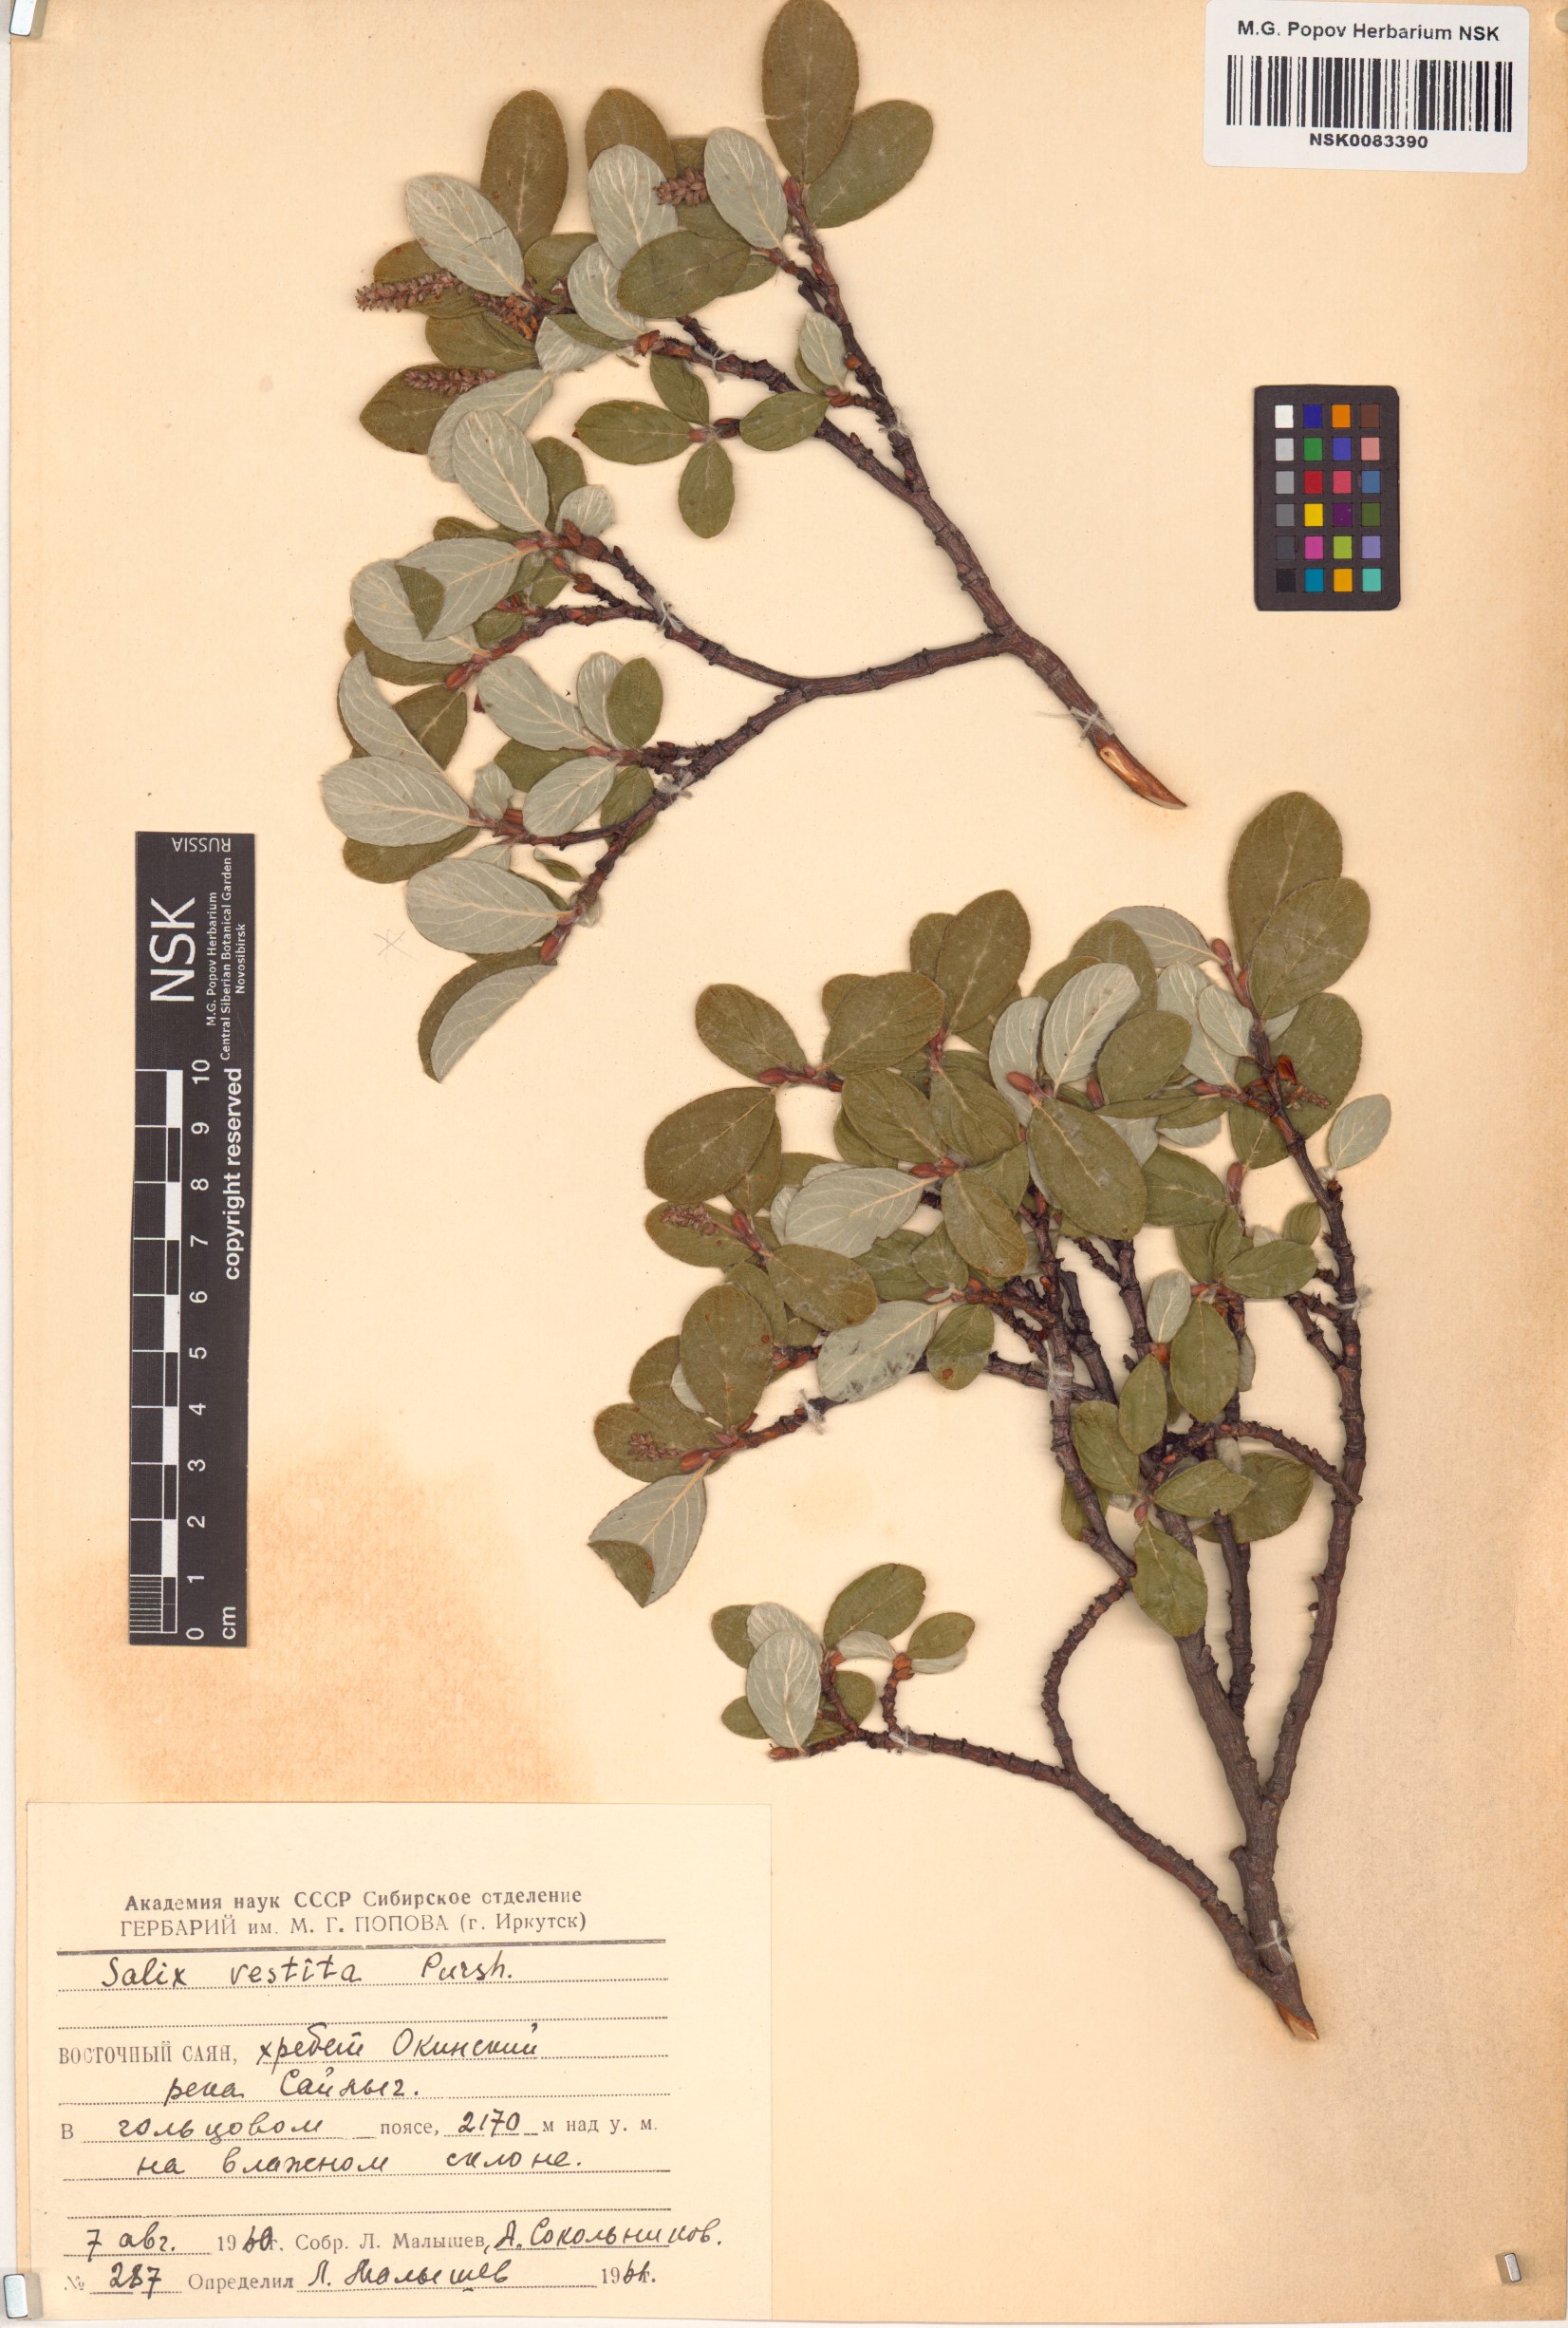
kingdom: Plantae
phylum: Tracheophyta
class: Magnoliopsida
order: Malpighiales
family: Salicaceae
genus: Salix
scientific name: Salix vestita
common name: Hairy willow
